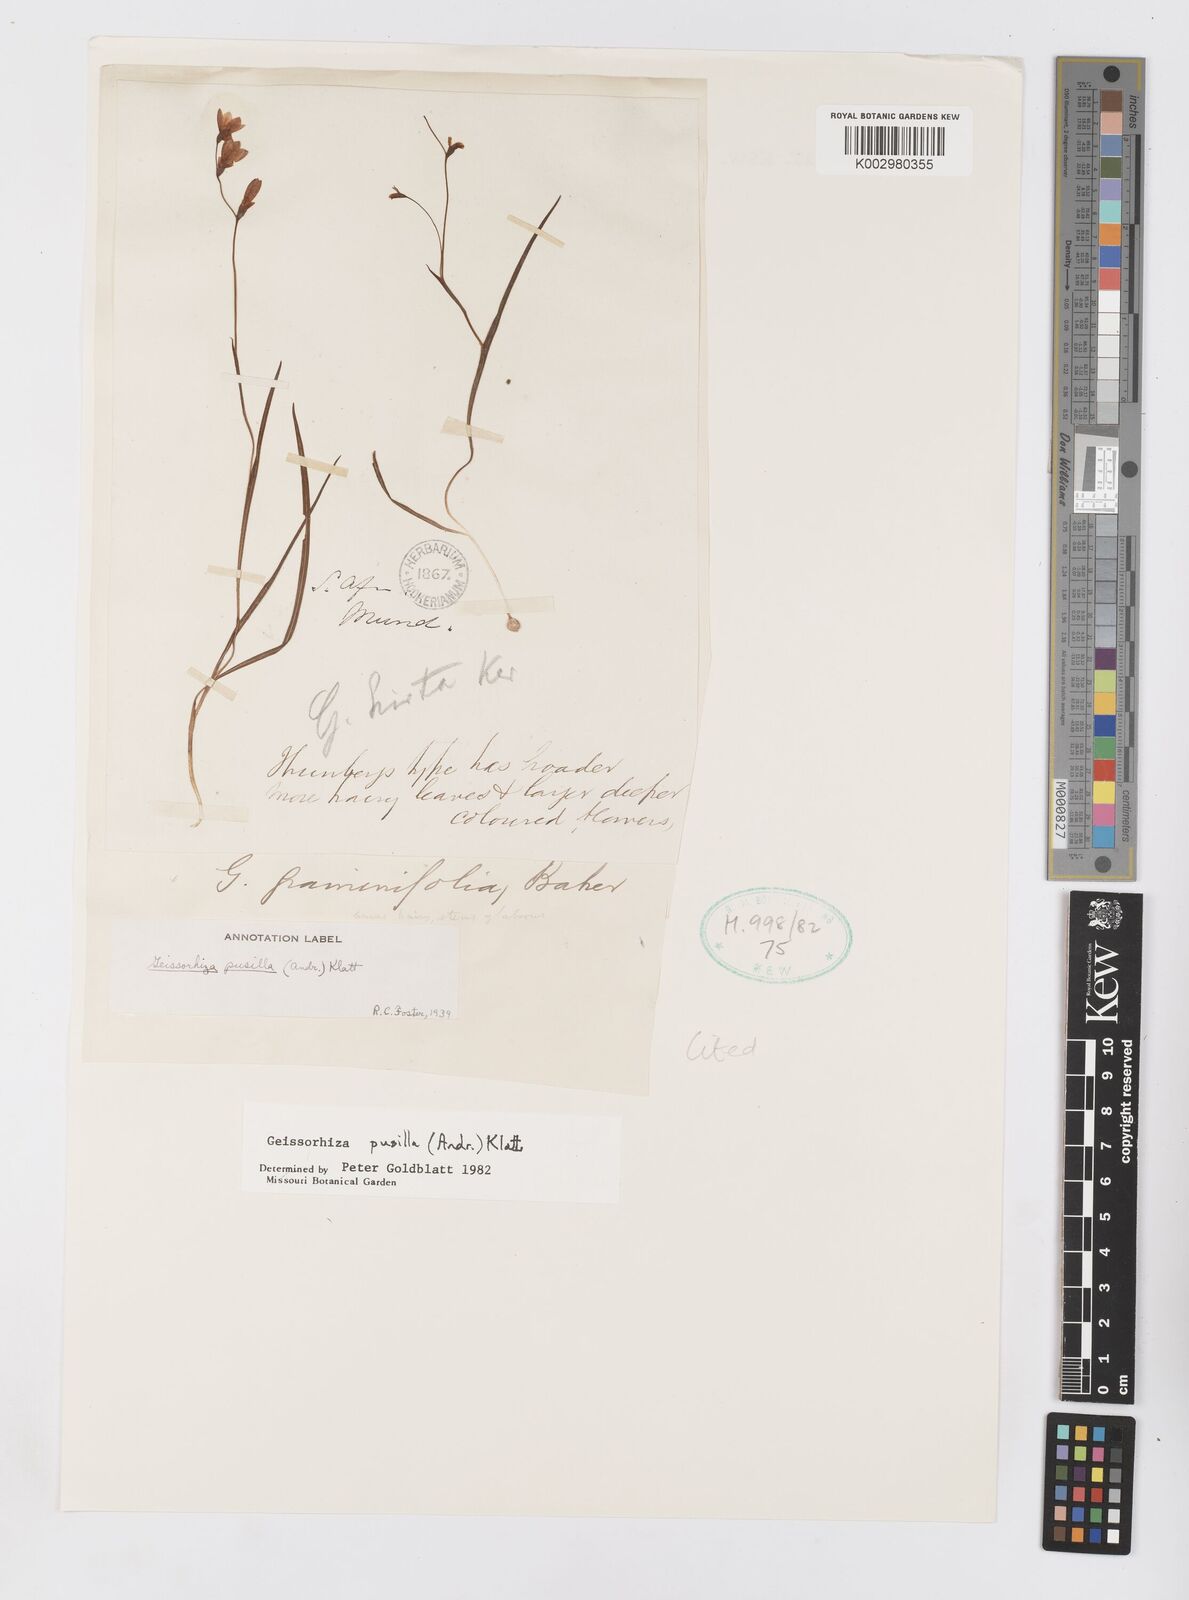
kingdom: Plantae
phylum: Tracheophyta
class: Liliopsida
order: Asparagales
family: Iridaceae
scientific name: Iridaceae
